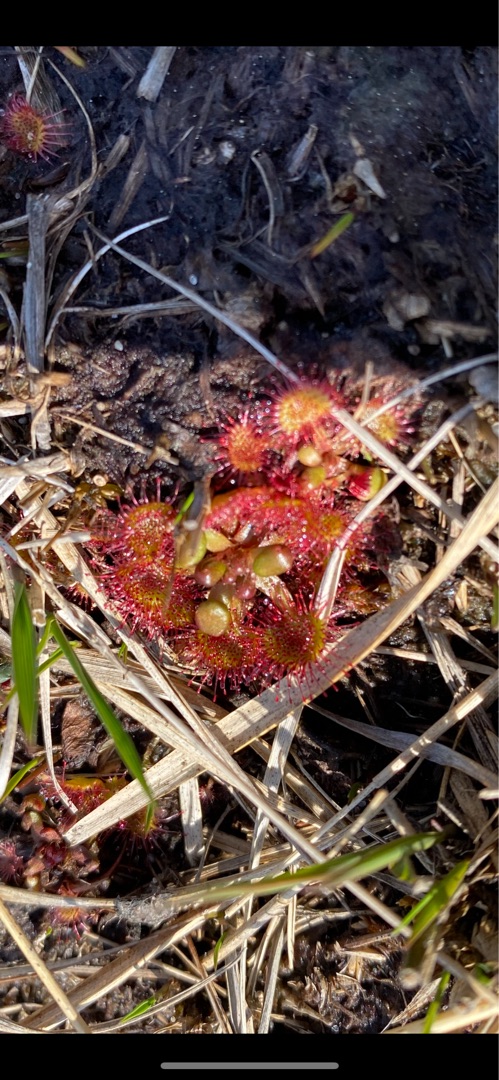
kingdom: Plantae
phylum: Tracheophyta
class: Magnoliopsida
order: Caryophyllales
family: Droseraceae
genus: Drosera
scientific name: Drosera rotundifolia
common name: Rundbladet soldug
